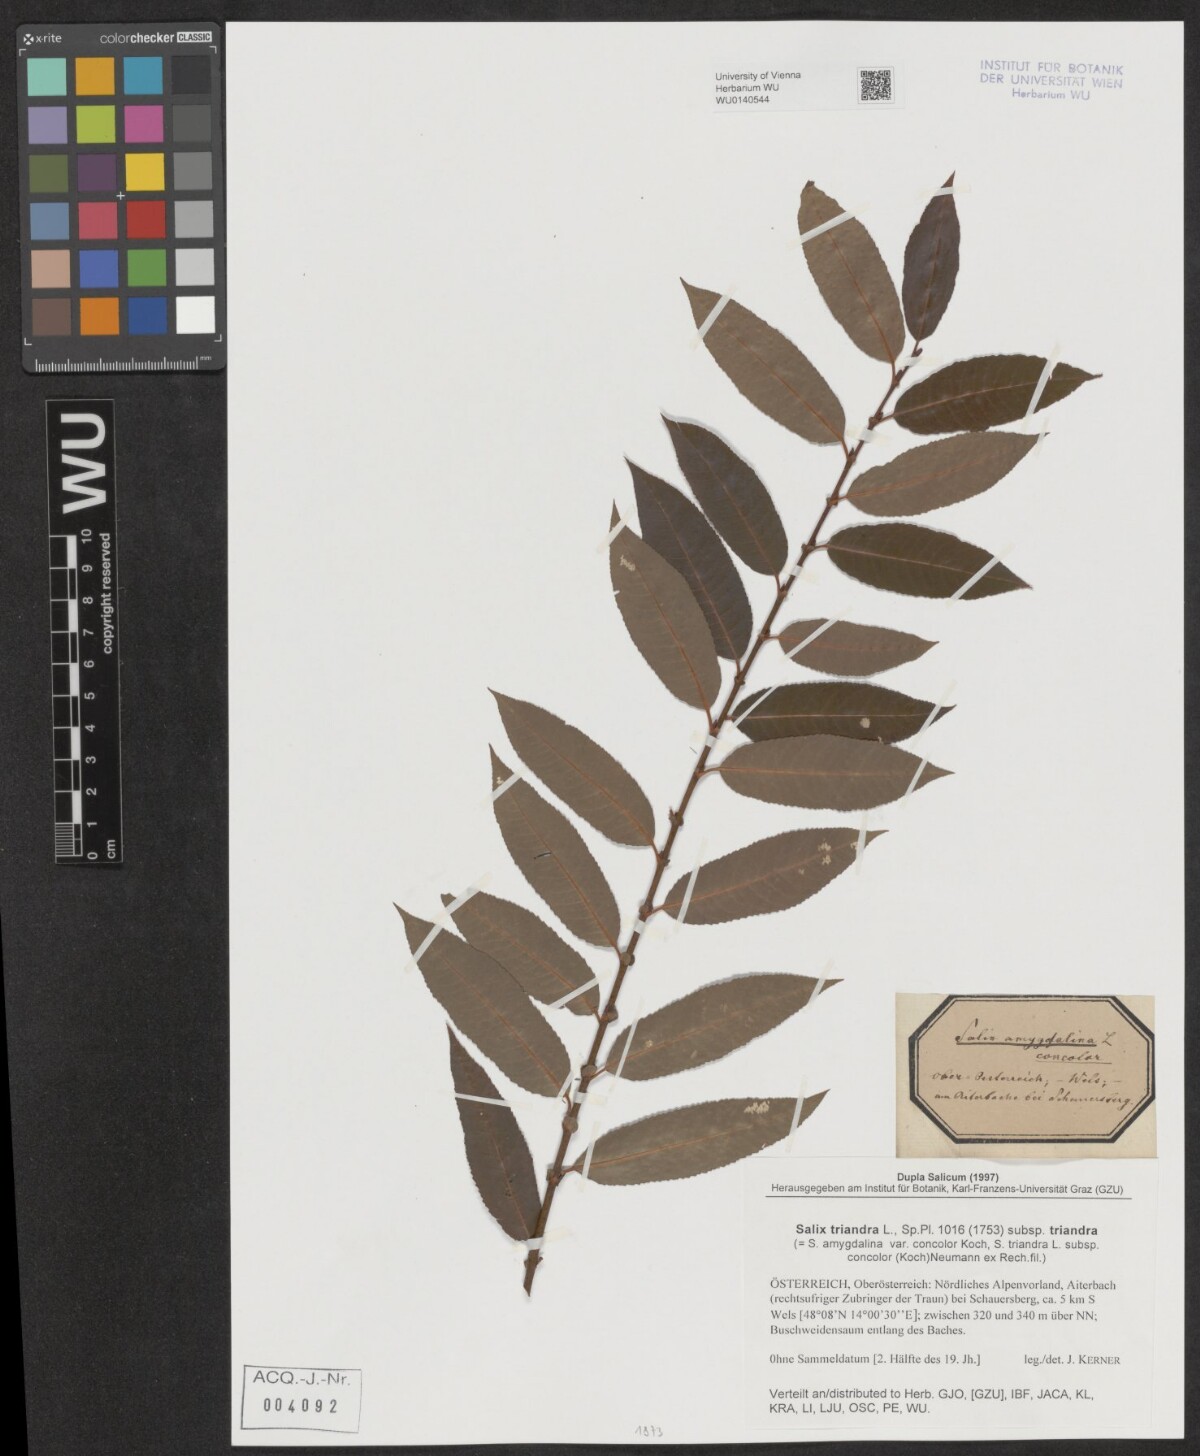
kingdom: Plantae
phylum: Tracheophyta
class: Magnoliopsida
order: Malpighiales
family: Salicaceae
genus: Salix
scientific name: Salix triandra
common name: Almond willow
